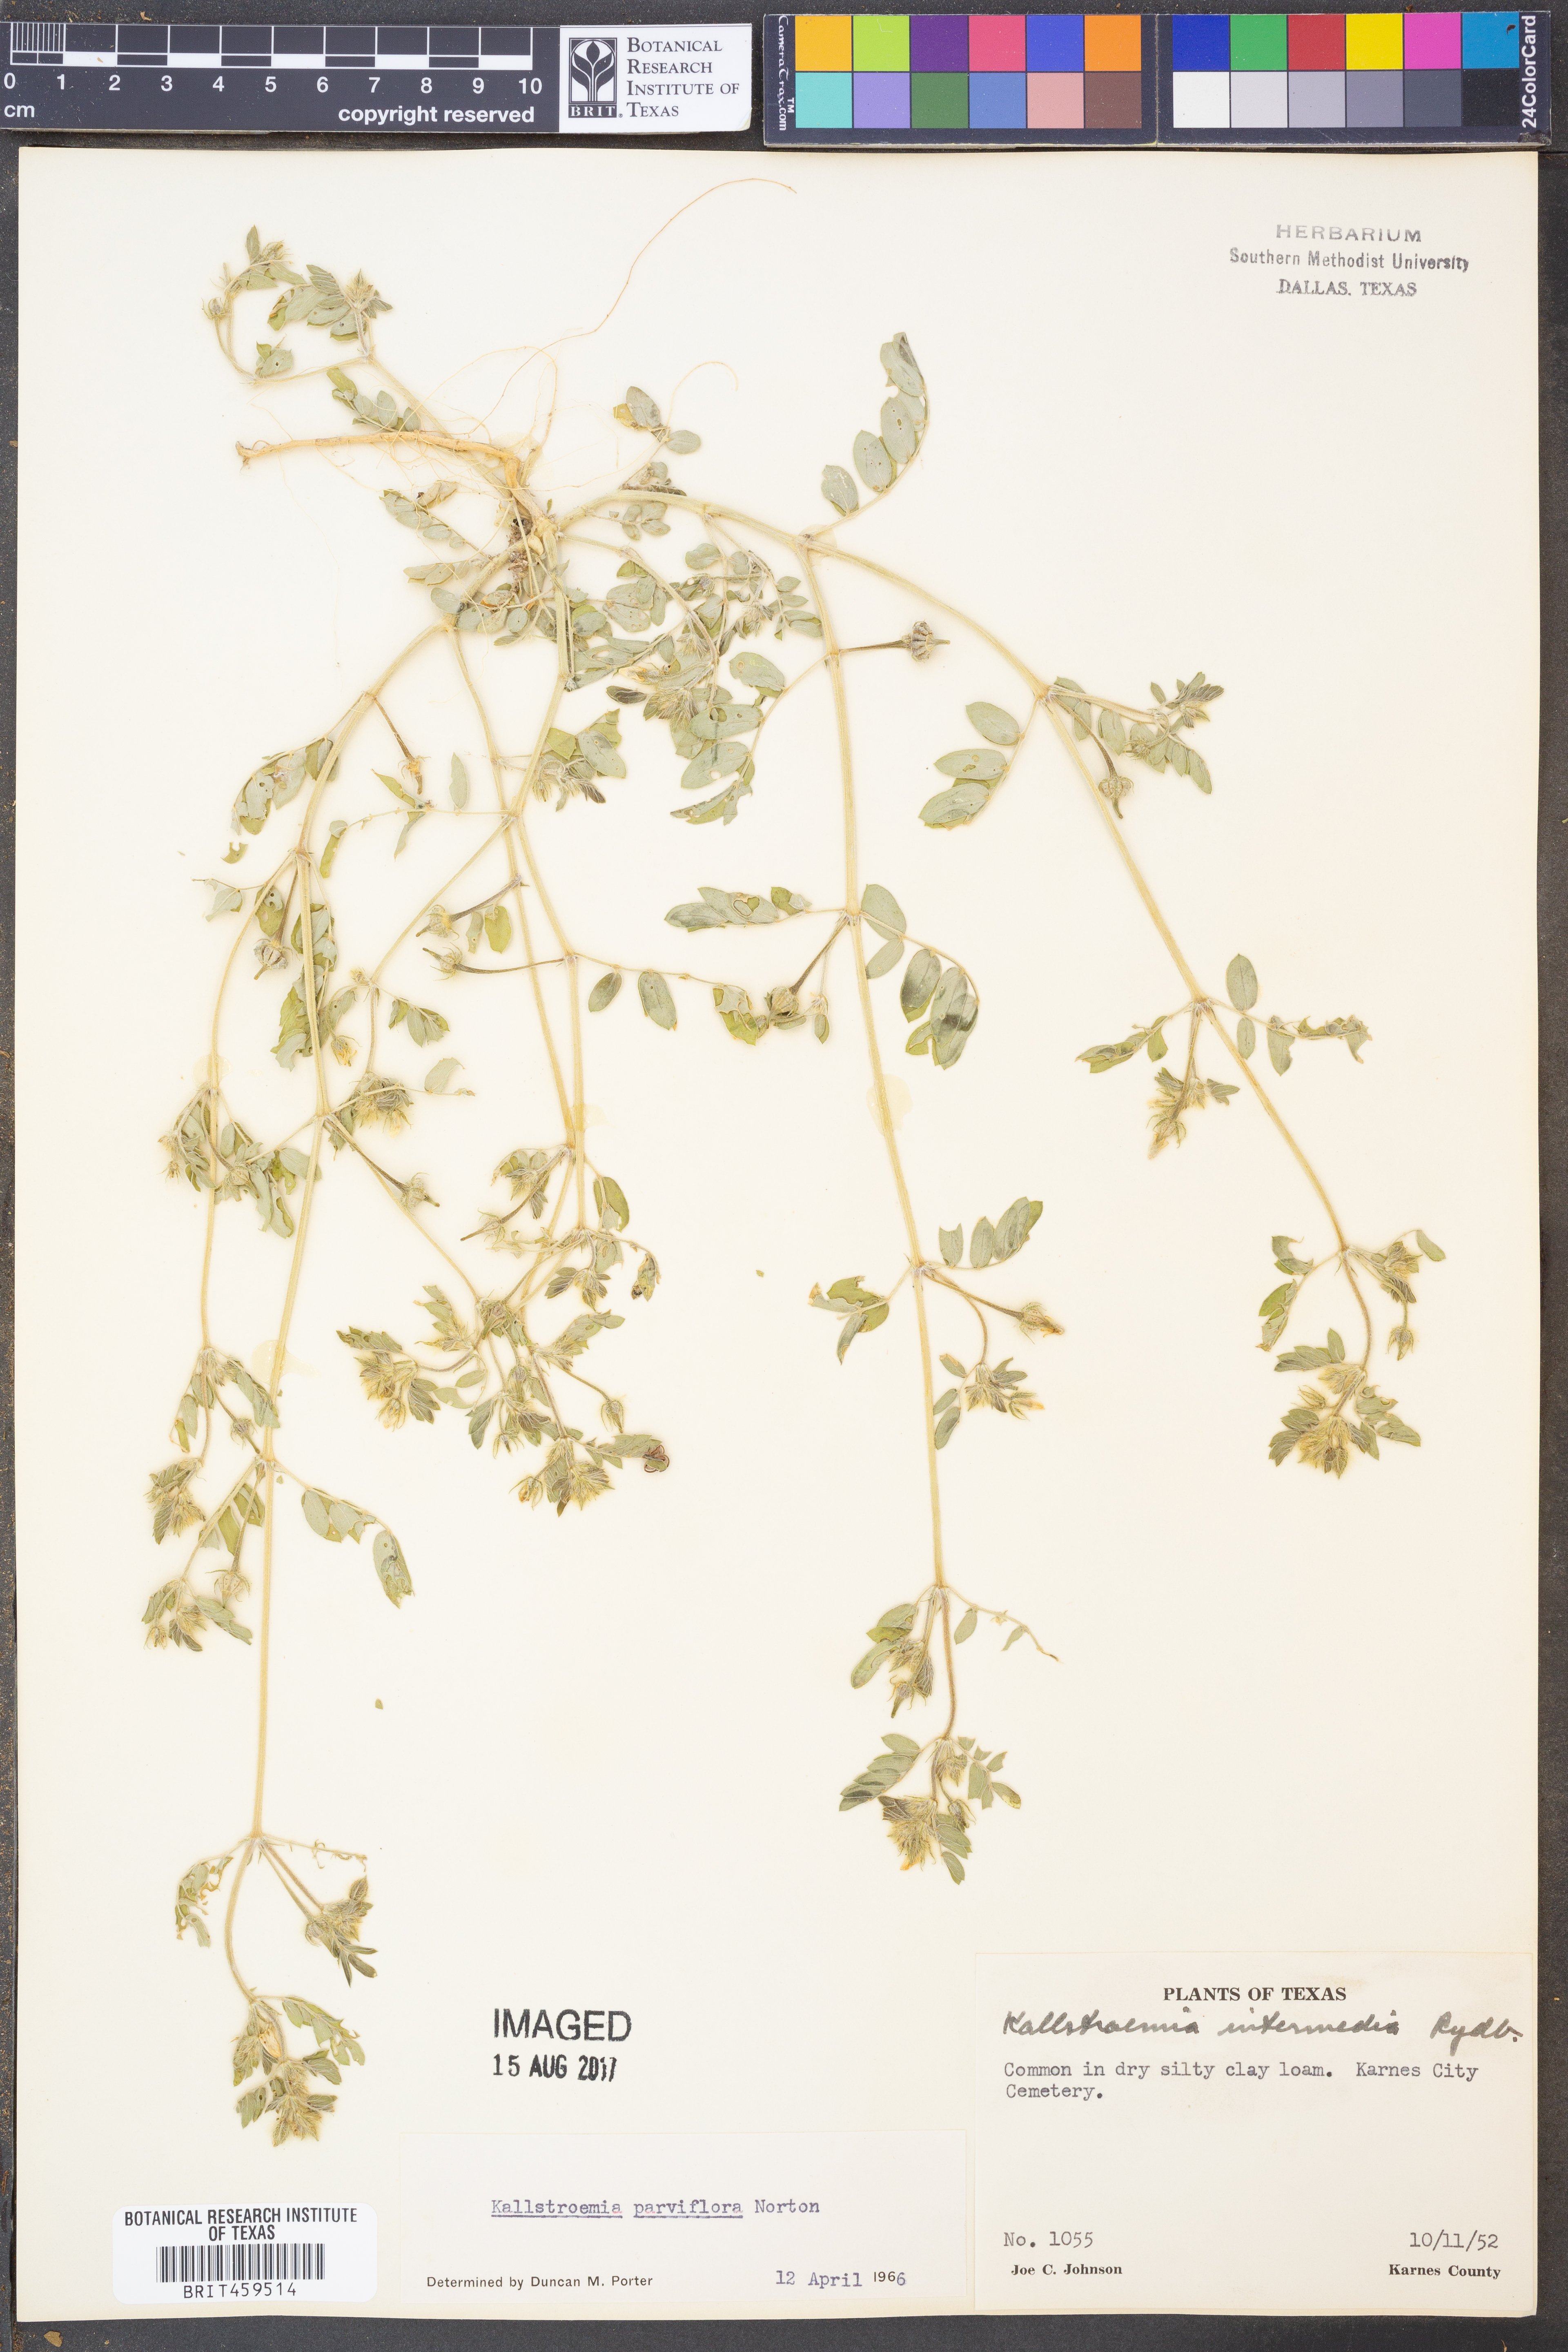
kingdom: Plantae
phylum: Tracheophyta
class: Magnoliopsida
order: Zygophyllales
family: Zygophyllaceae
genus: Kallstroemia
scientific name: Kallstroemia parviflora
